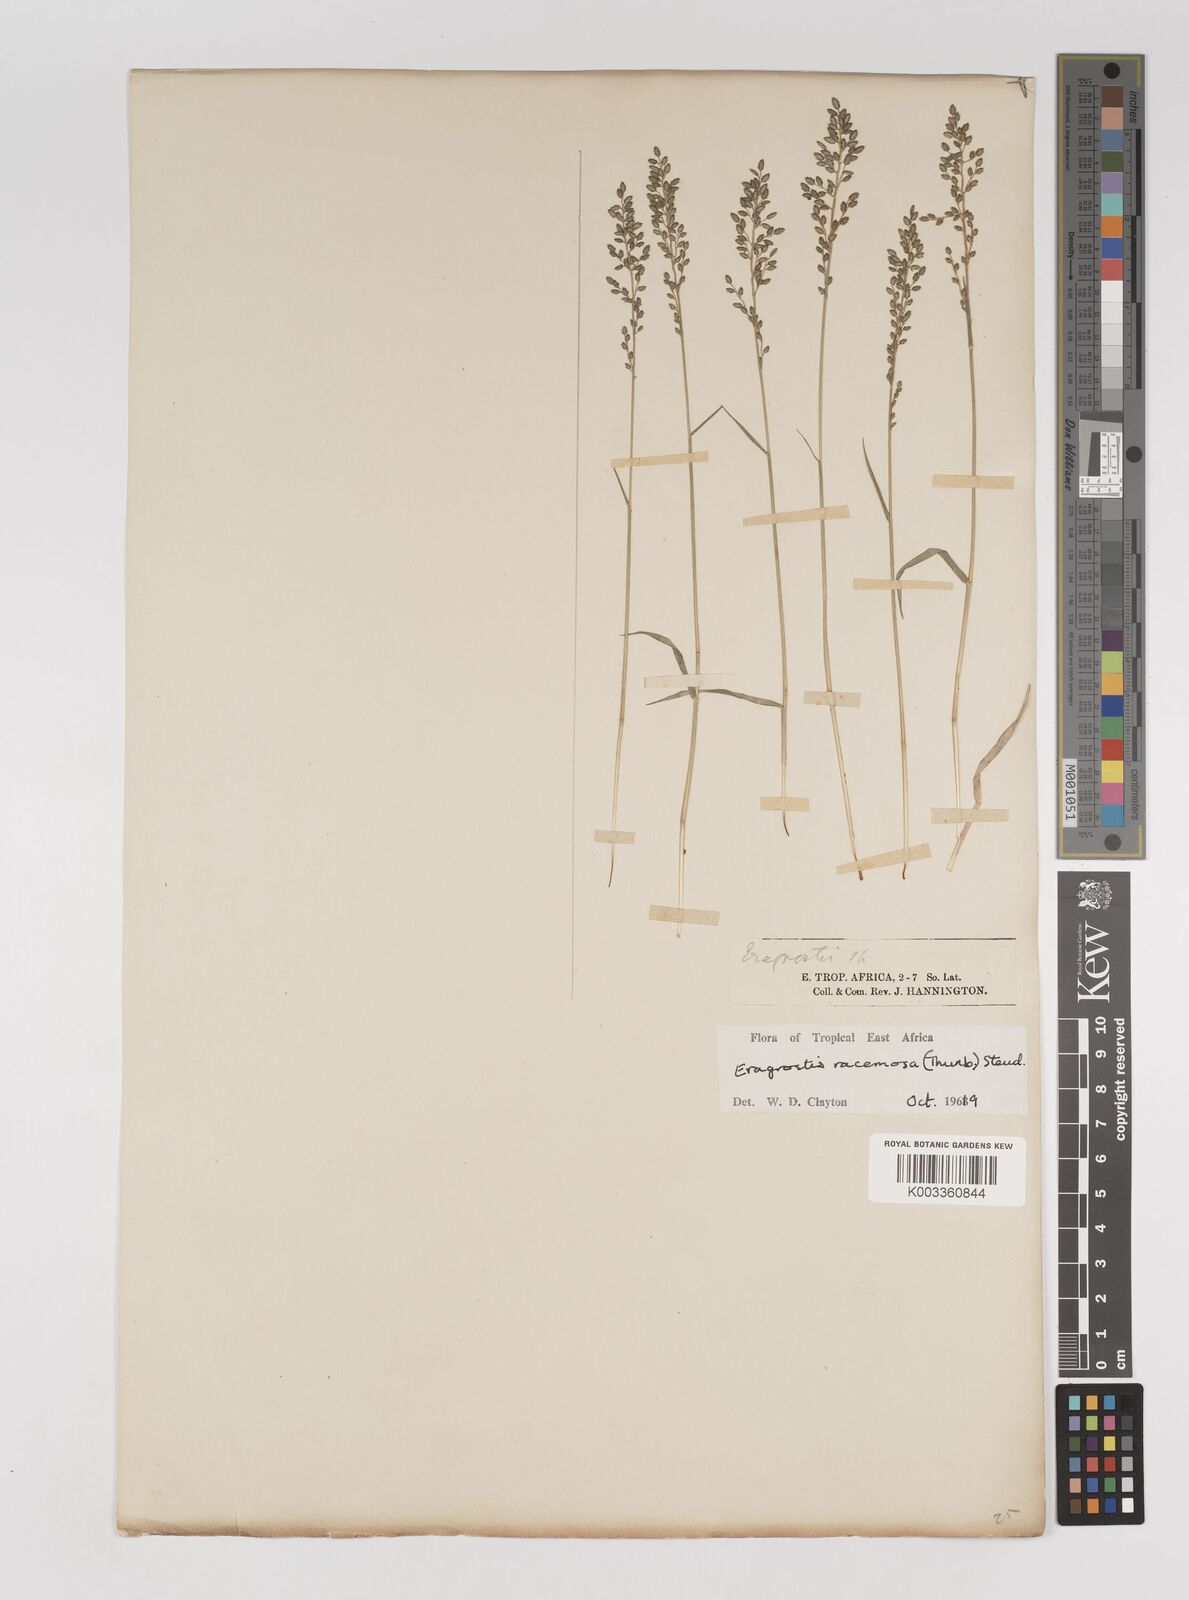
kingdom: Plantae
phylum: Tracheophyta
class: Liliopsida
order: Poales
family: Poaceae
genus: Eragrostis
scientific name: Eragrostis racemosa
